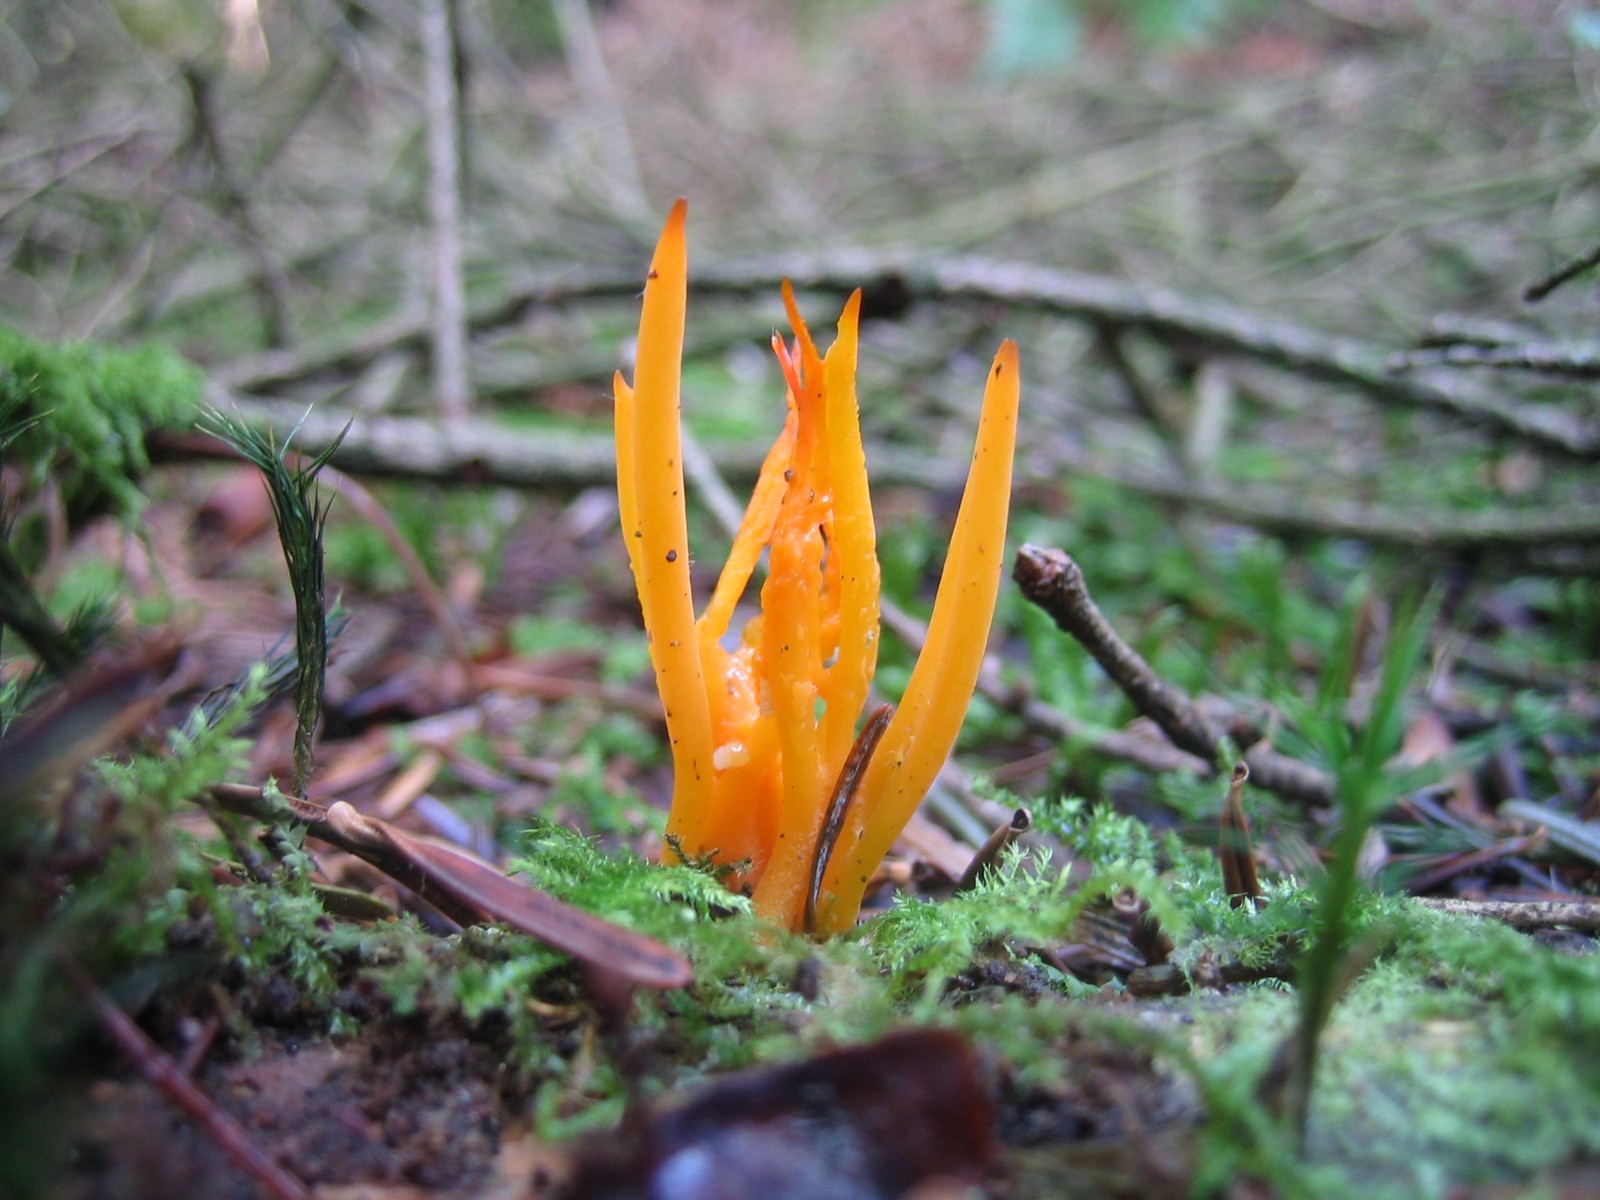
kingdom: Fungi
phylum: Basidiomycota
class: Dacrymycetes
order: Dacrymycetales
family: Dacrymycetaceae
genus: Calocera
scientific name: Calocera viscosa
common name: almindelig guldgaffel
